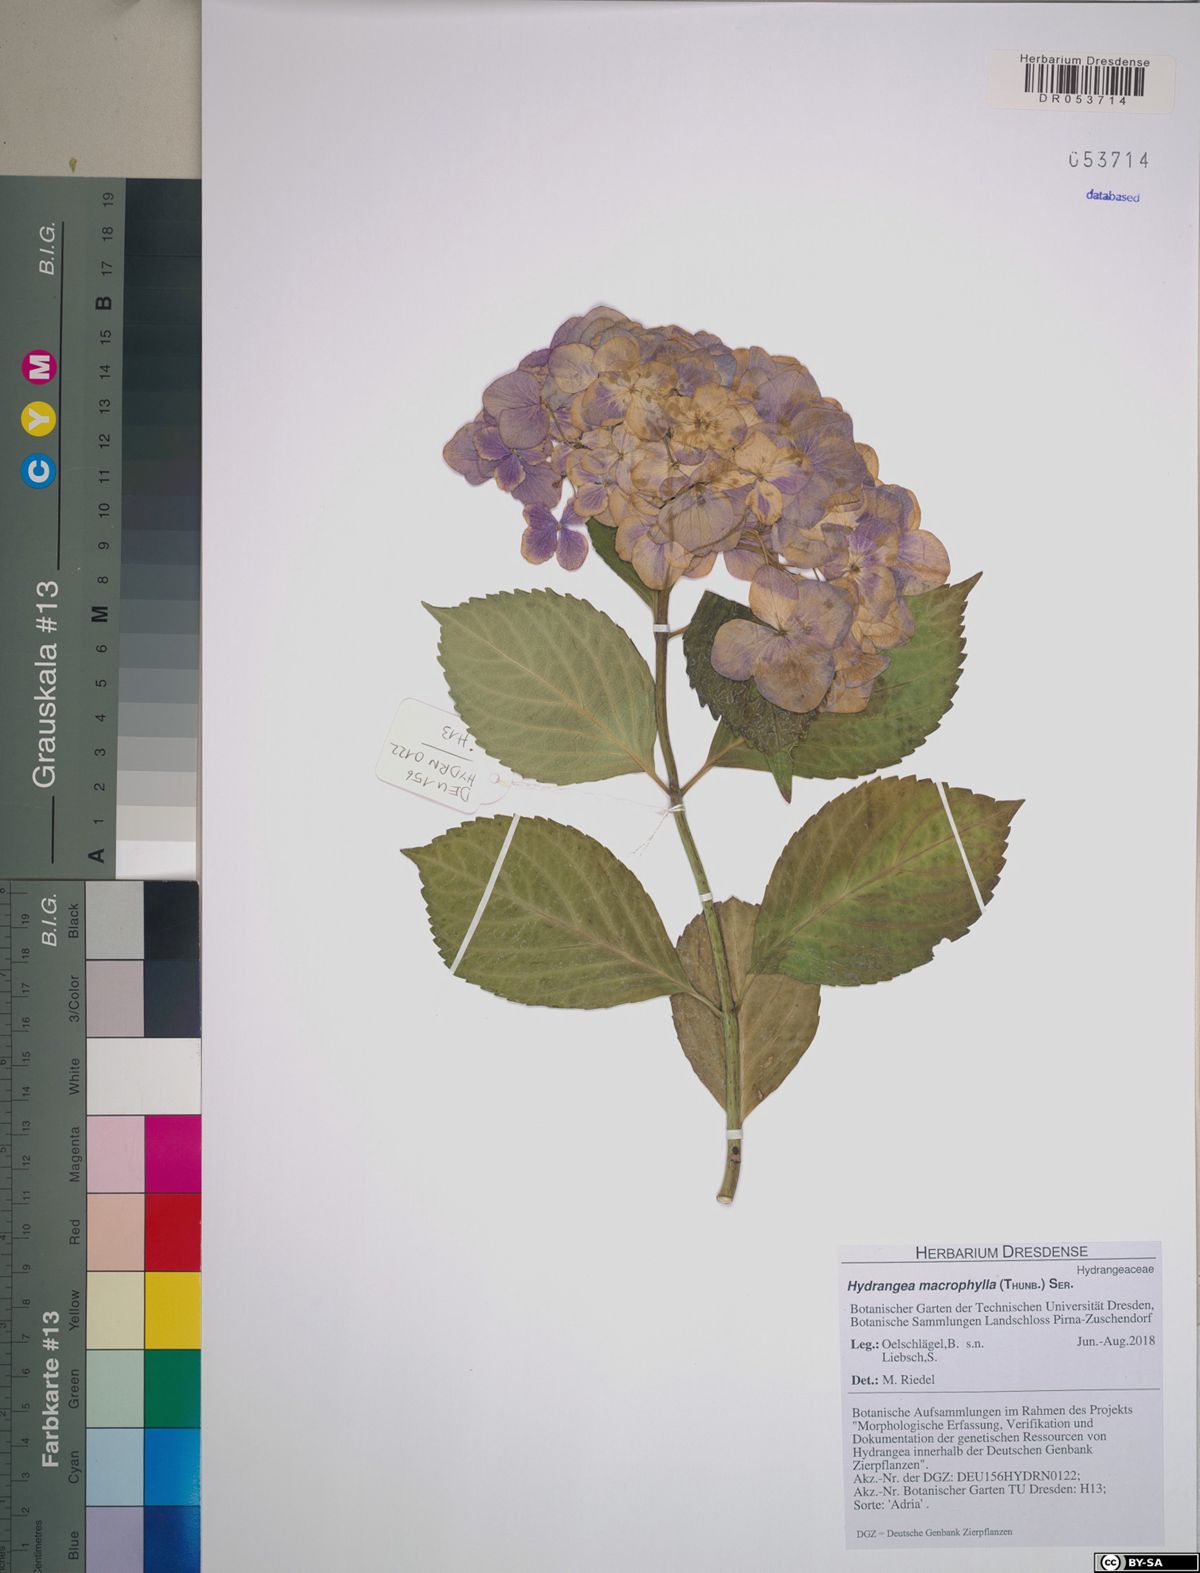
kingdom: Plantae
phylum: Tracheophyta
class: Magnoliopsida
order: Cornales
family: Hydrangeaceae
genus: Hydrangea
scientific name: Hydrangea macrophylla
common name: Hydrangea
